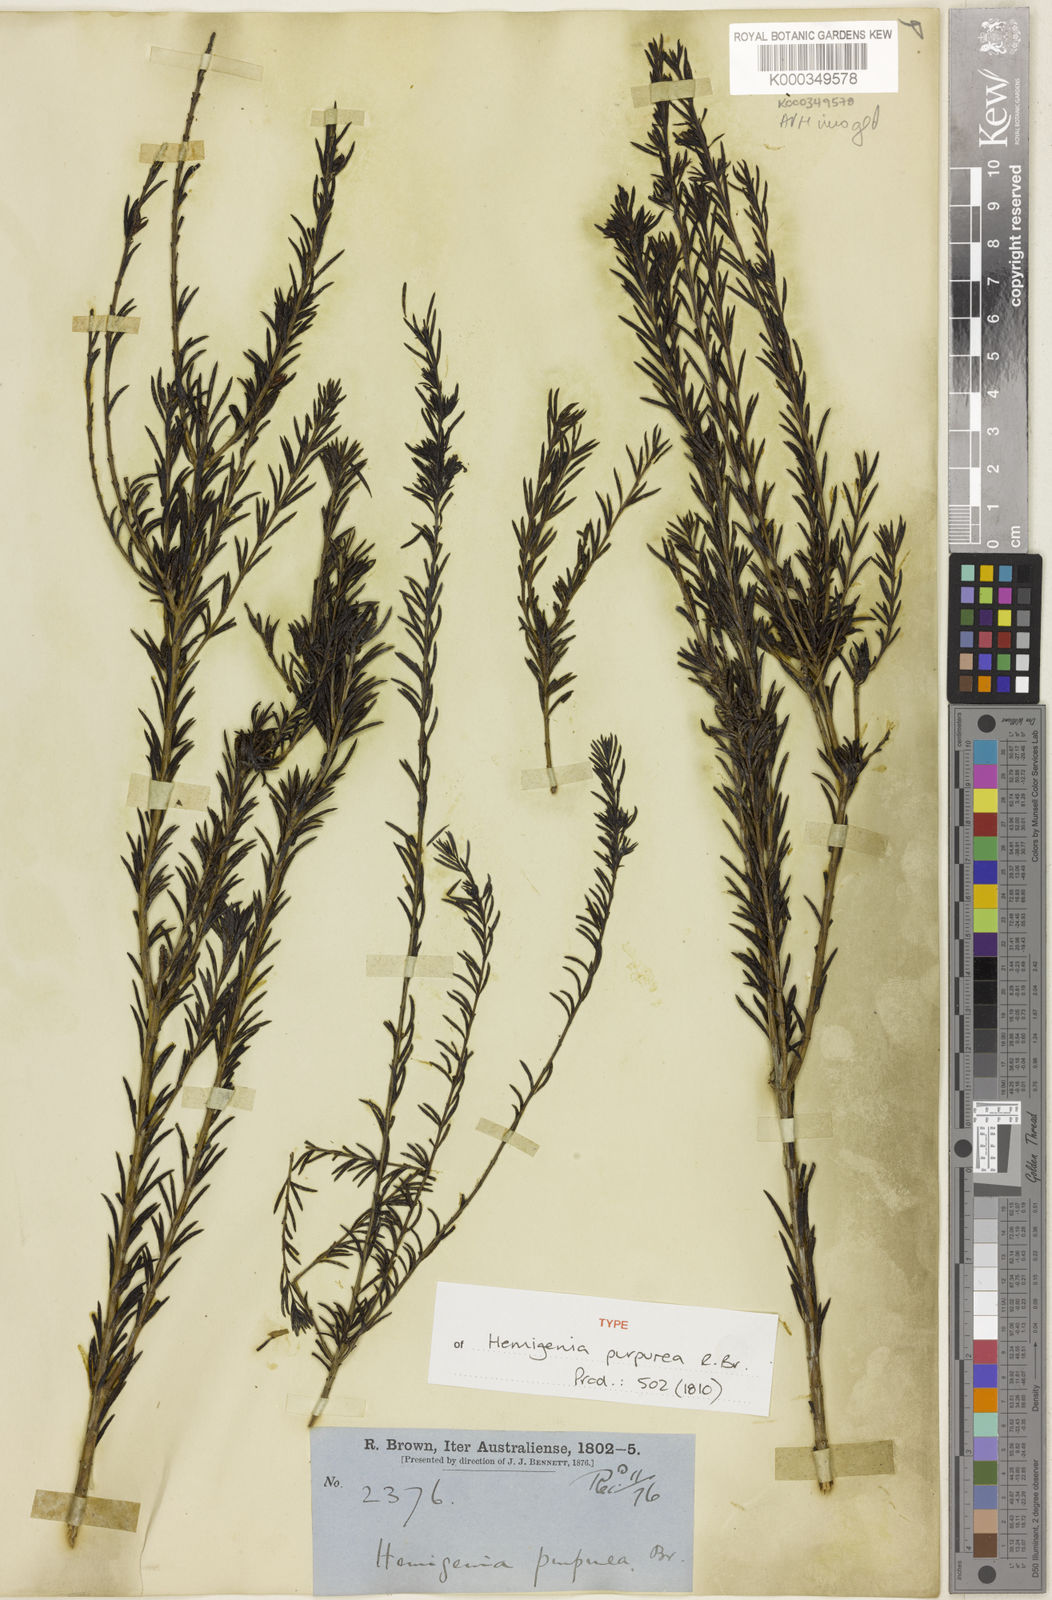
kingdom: Plantae
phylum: Tracheophyta
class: Magnoliopsida
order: Lamiales
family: Lamiaceae
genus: Hemigenia
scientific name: Hemigenia purpurea
